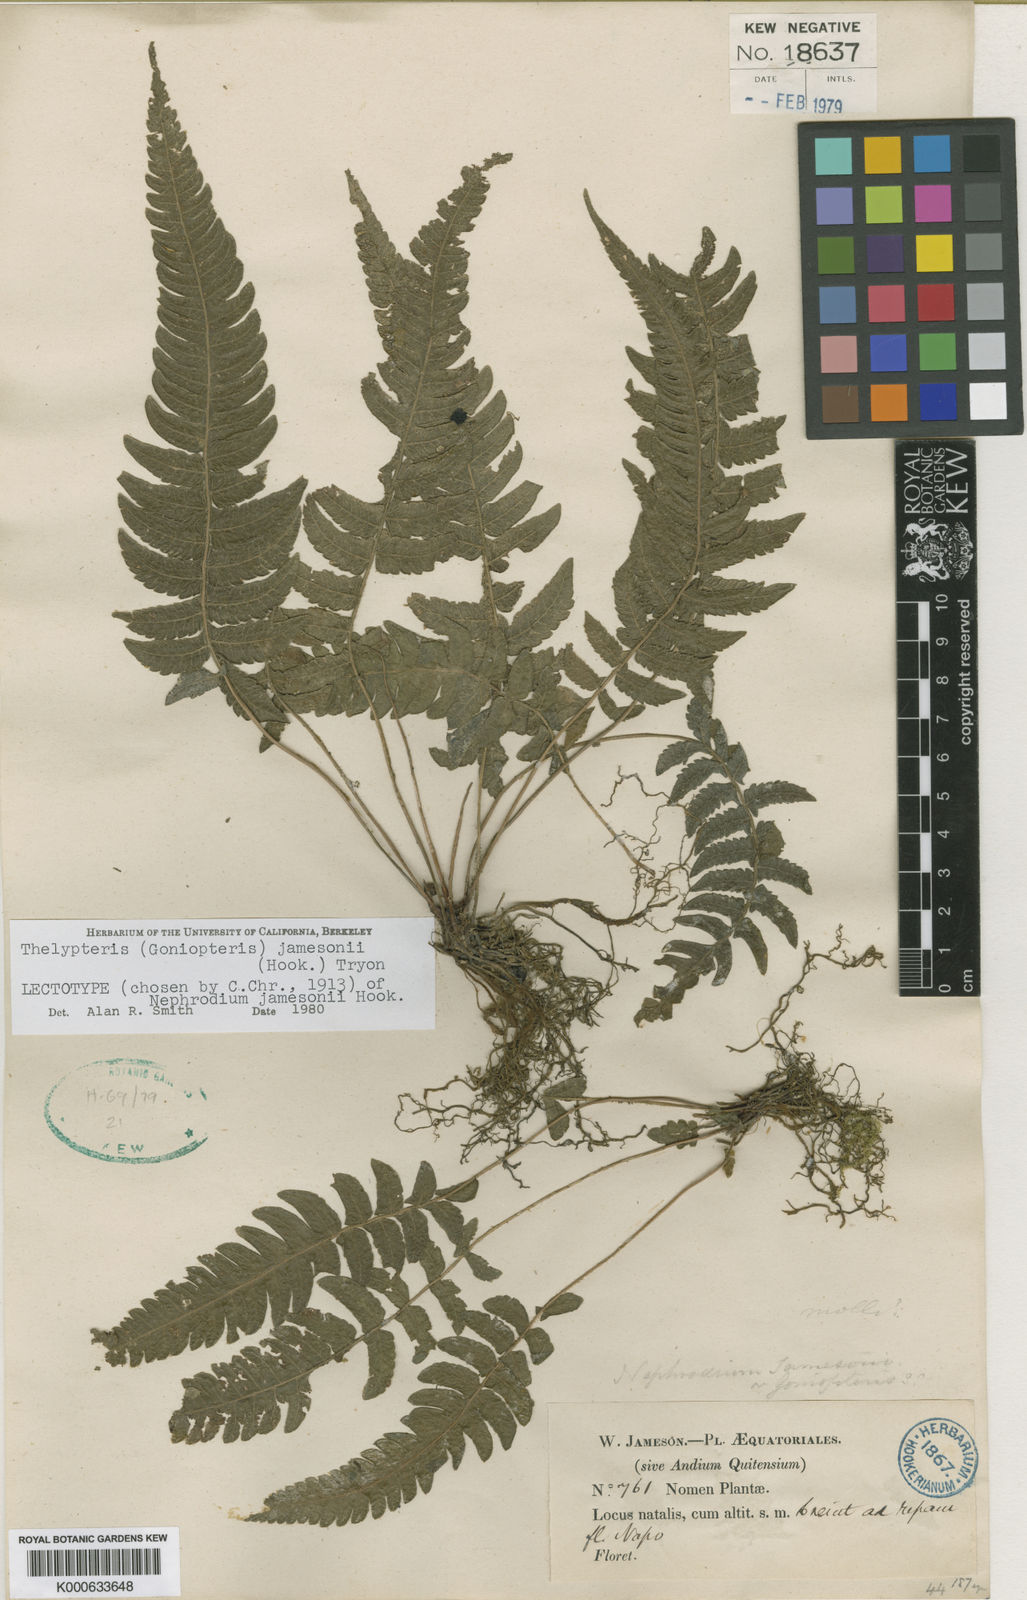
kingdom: Plantae
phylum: Tracheophyta
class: Polypodiopsida
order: Polypodiales
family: Thelypteridaceae
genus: Goniopteris
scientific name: Goniopteris jamesonii
